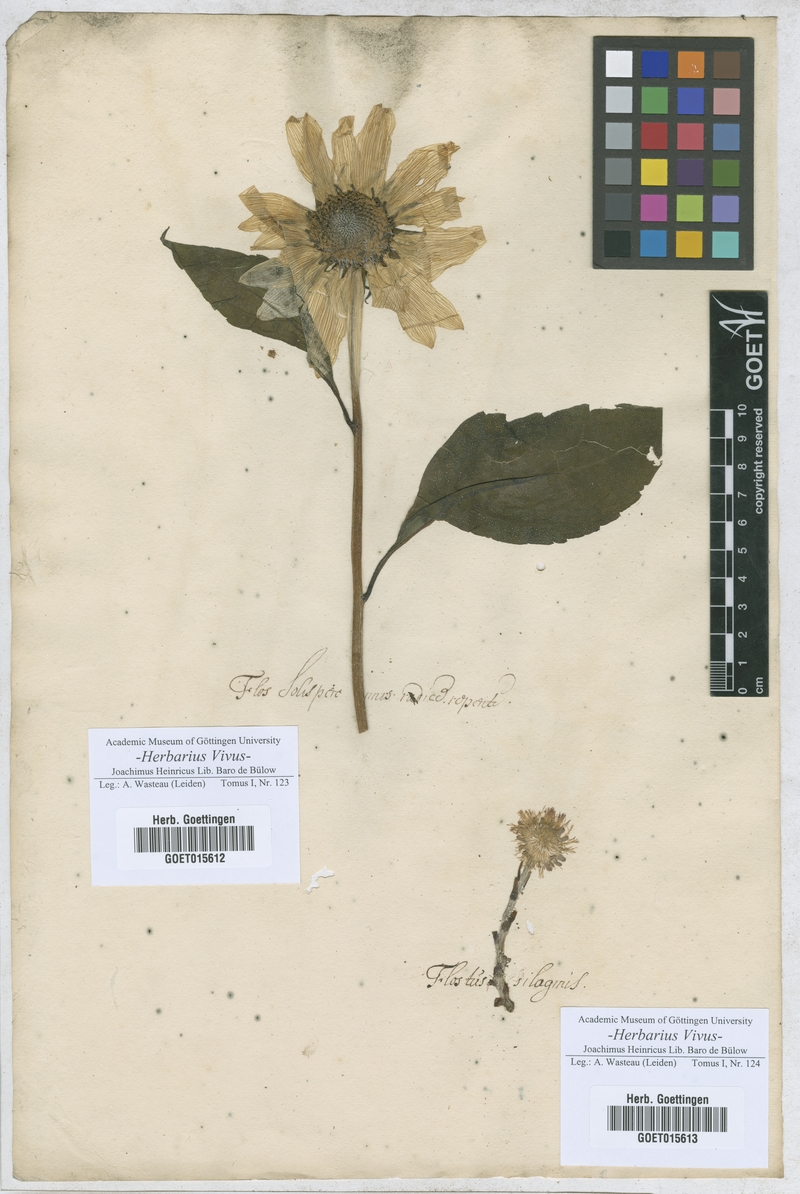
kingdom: Plantae
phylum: Tracheophyta
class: Magnoliopsida
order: Asterales
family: Asteraceae
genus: Helenium
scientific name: Helenium
